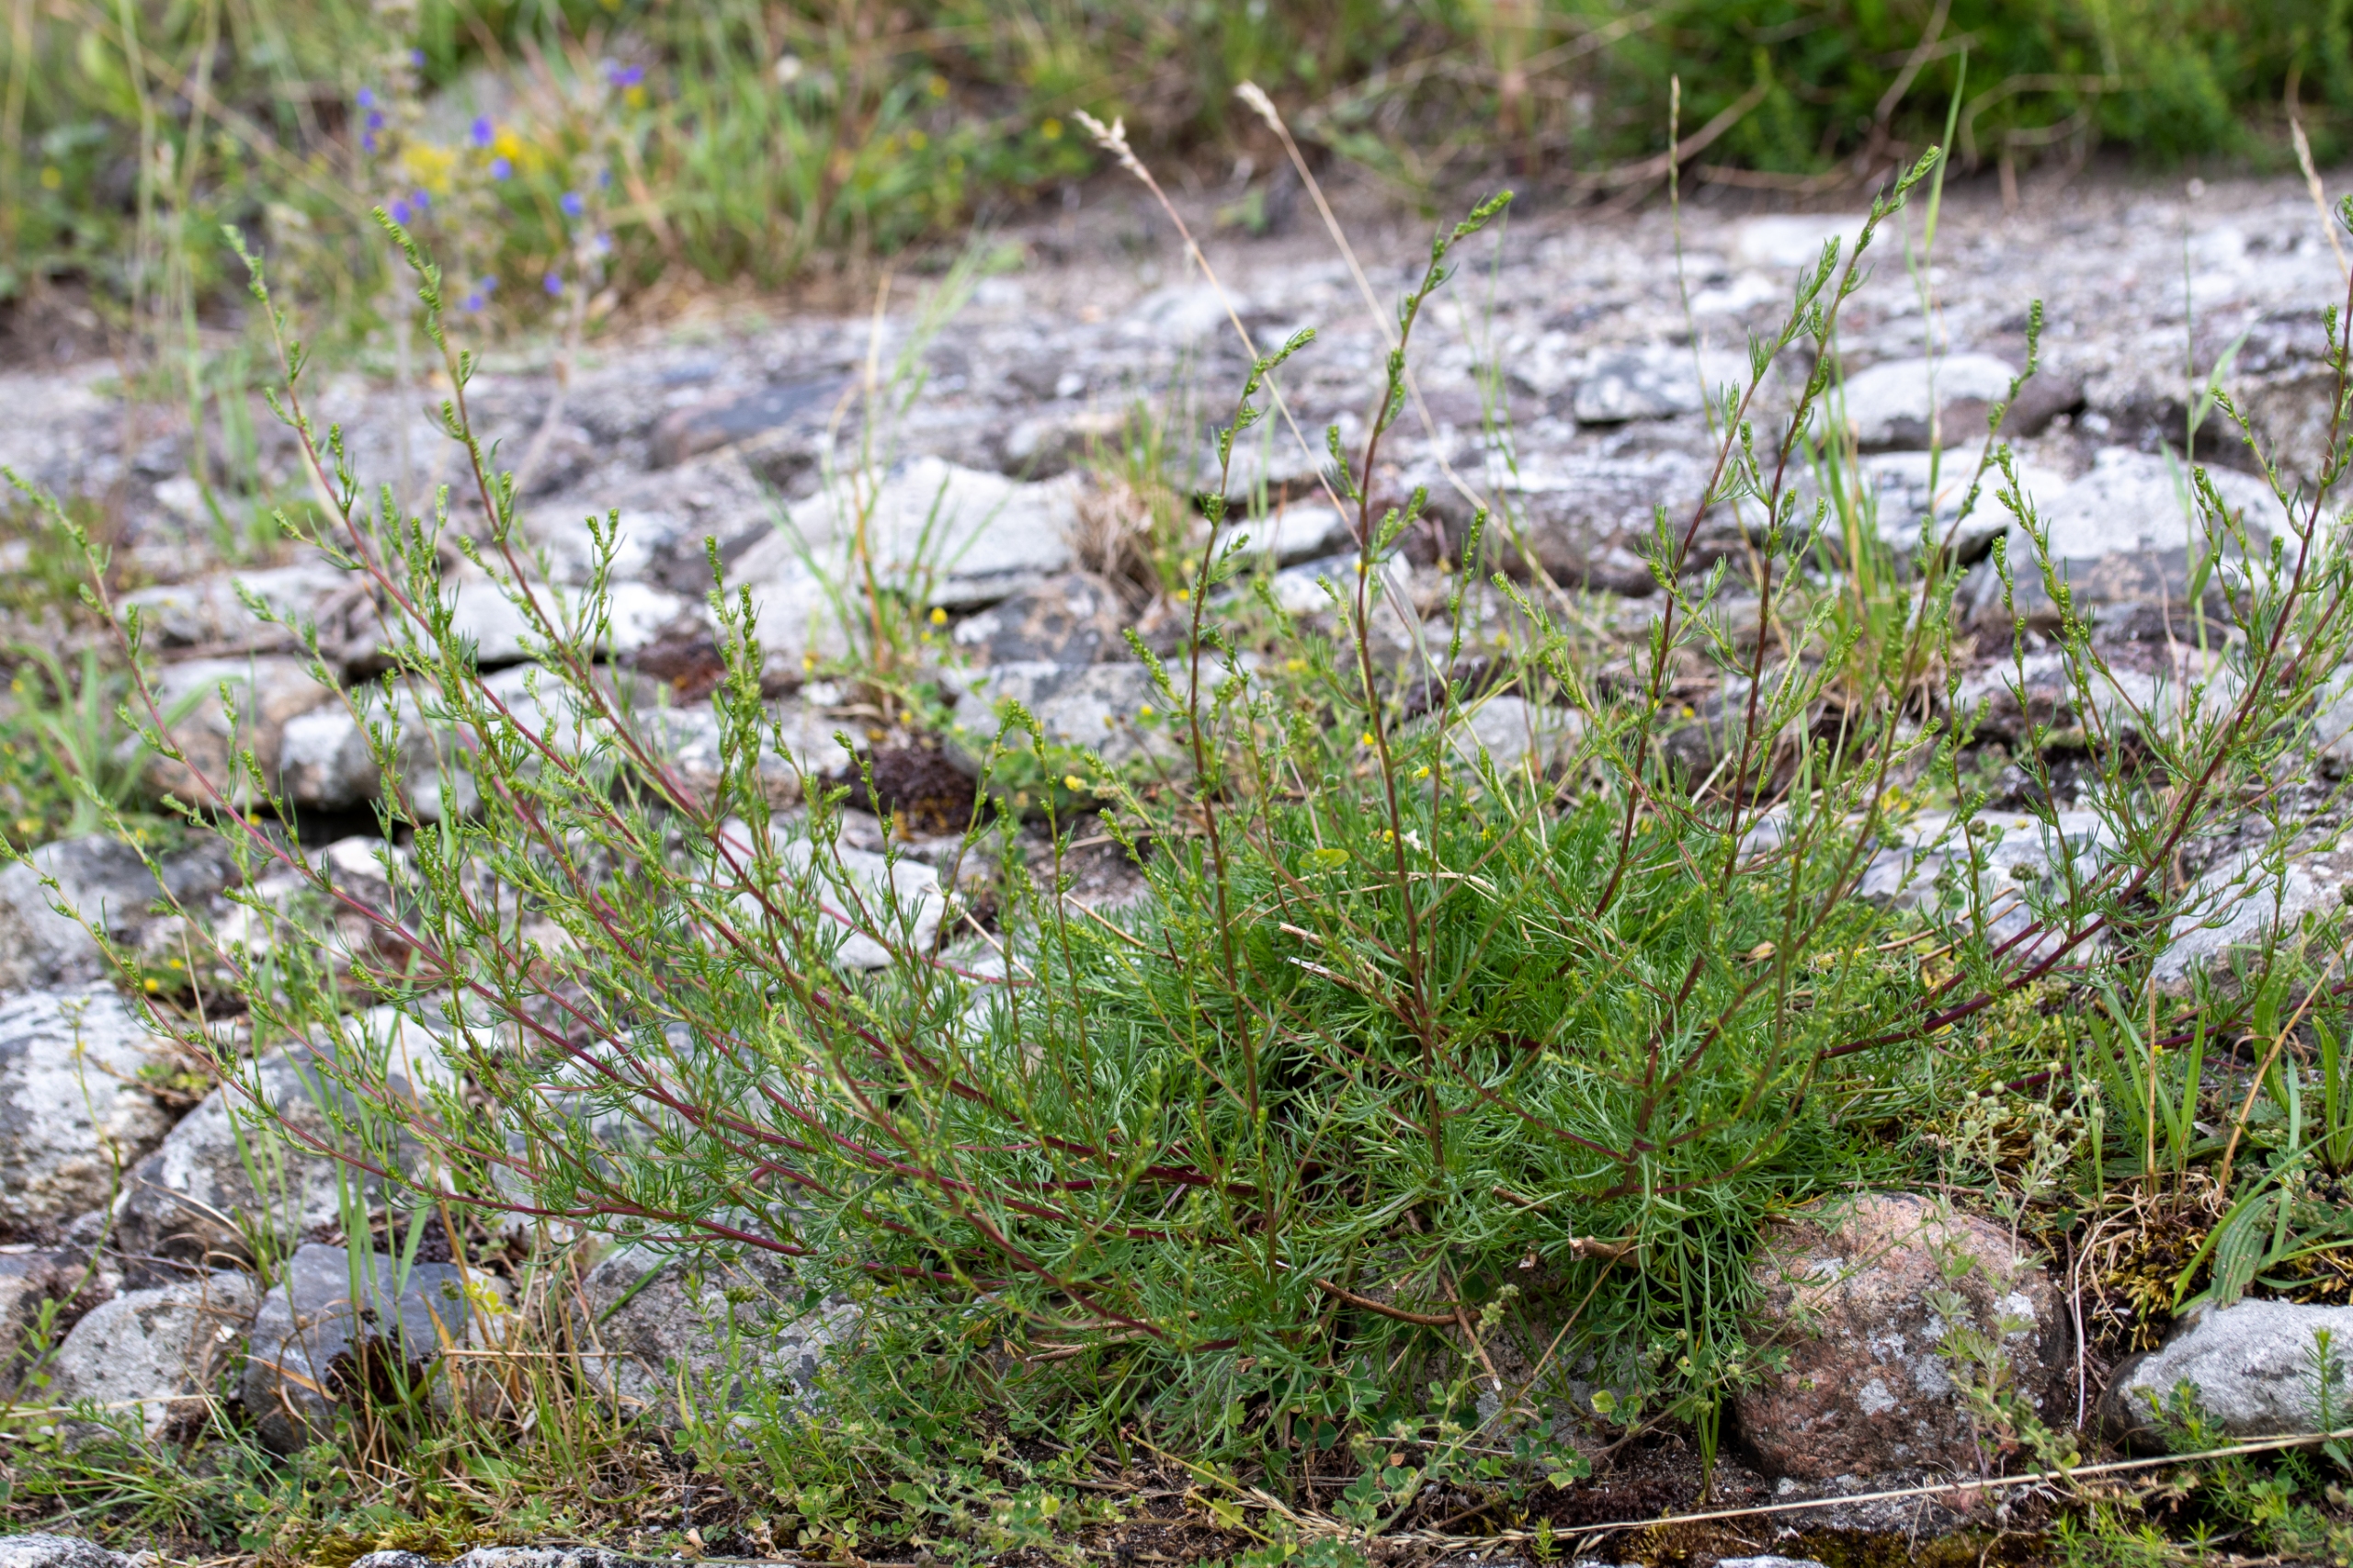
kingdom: Plantae
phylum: Tracheophyta
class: Magnoliopsida
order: Asterales
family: Asteraceae
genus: Artemisia
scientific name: Artemisia campestris
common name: Mark-bynke
